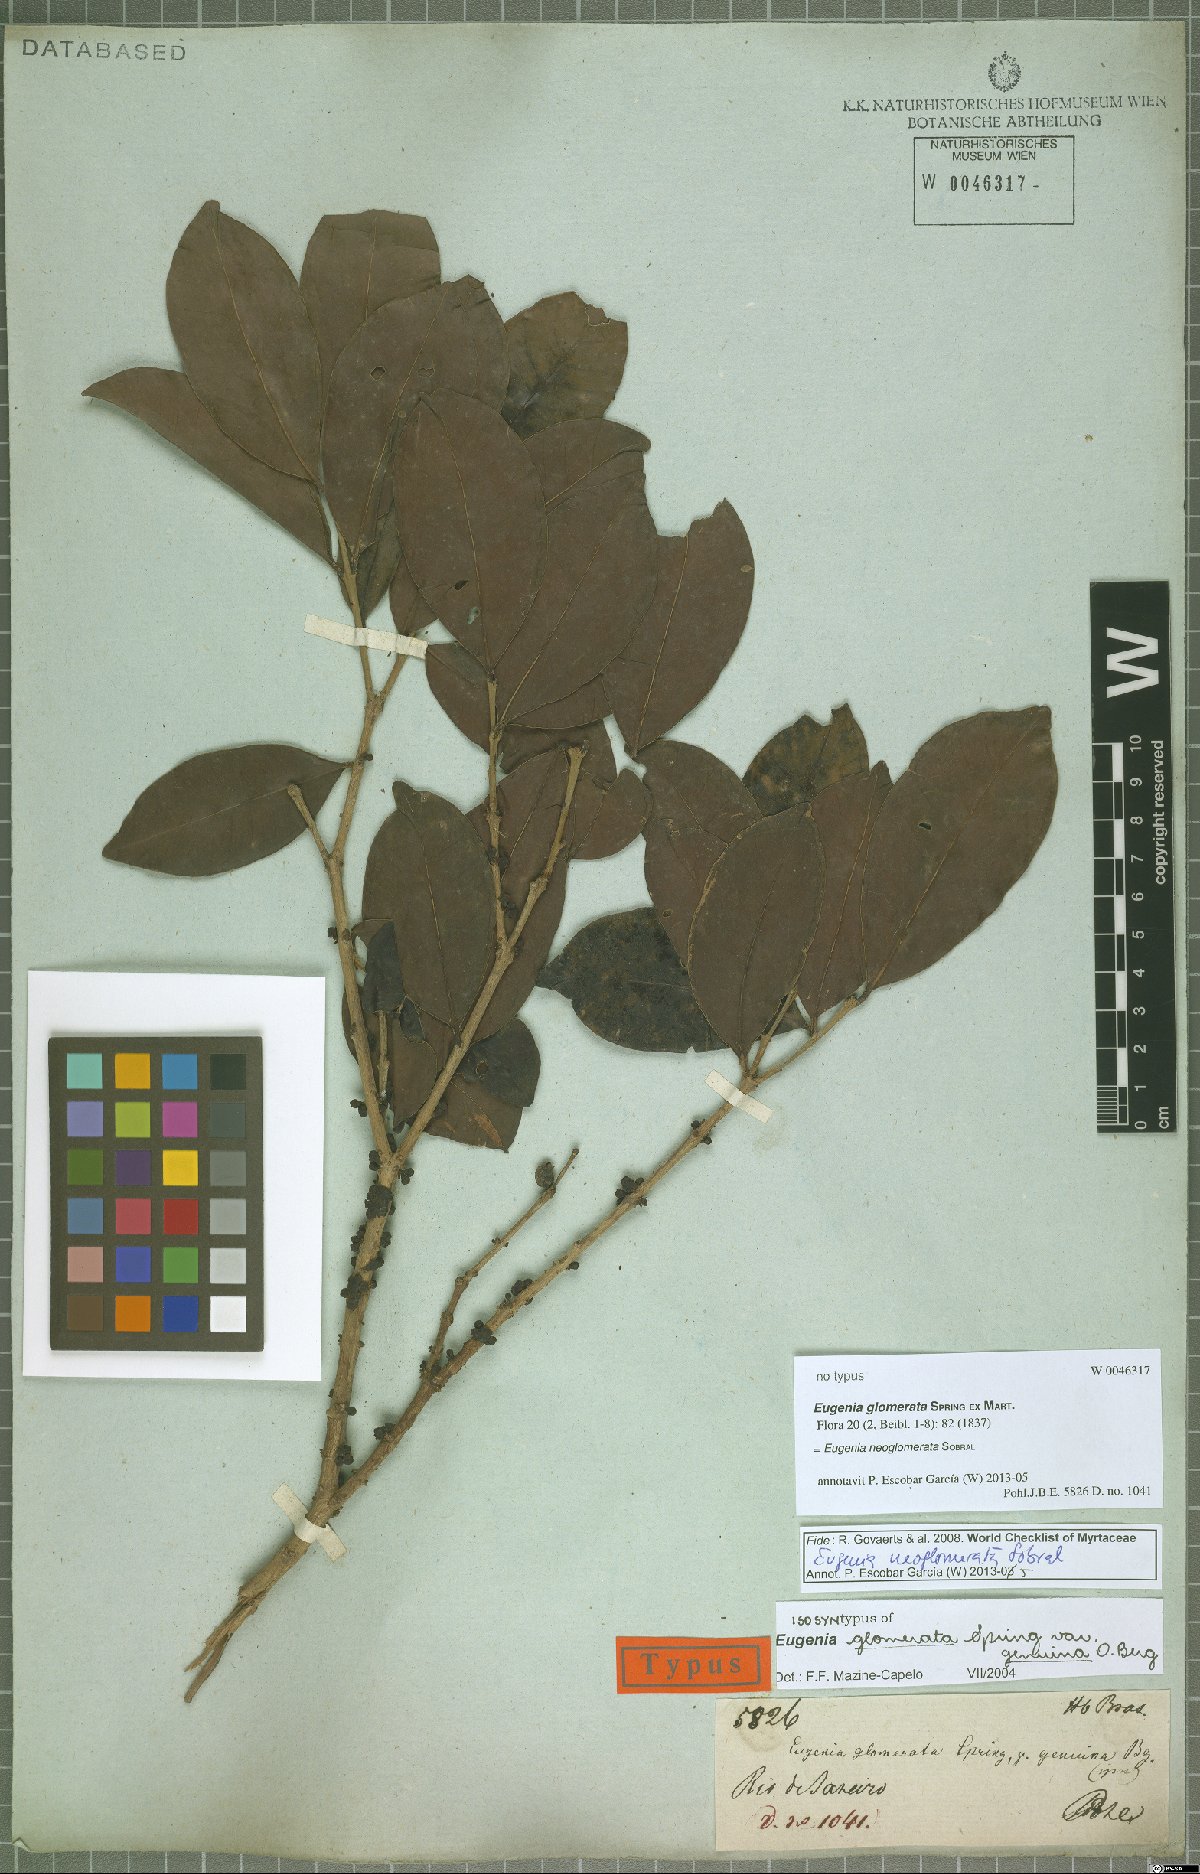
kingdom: Plantae
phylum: Tracheophyta
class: Magnoliopsida
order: Myrtales
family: Myrtaceae
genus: Eugenia
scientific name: Eugenia neoglomerata
